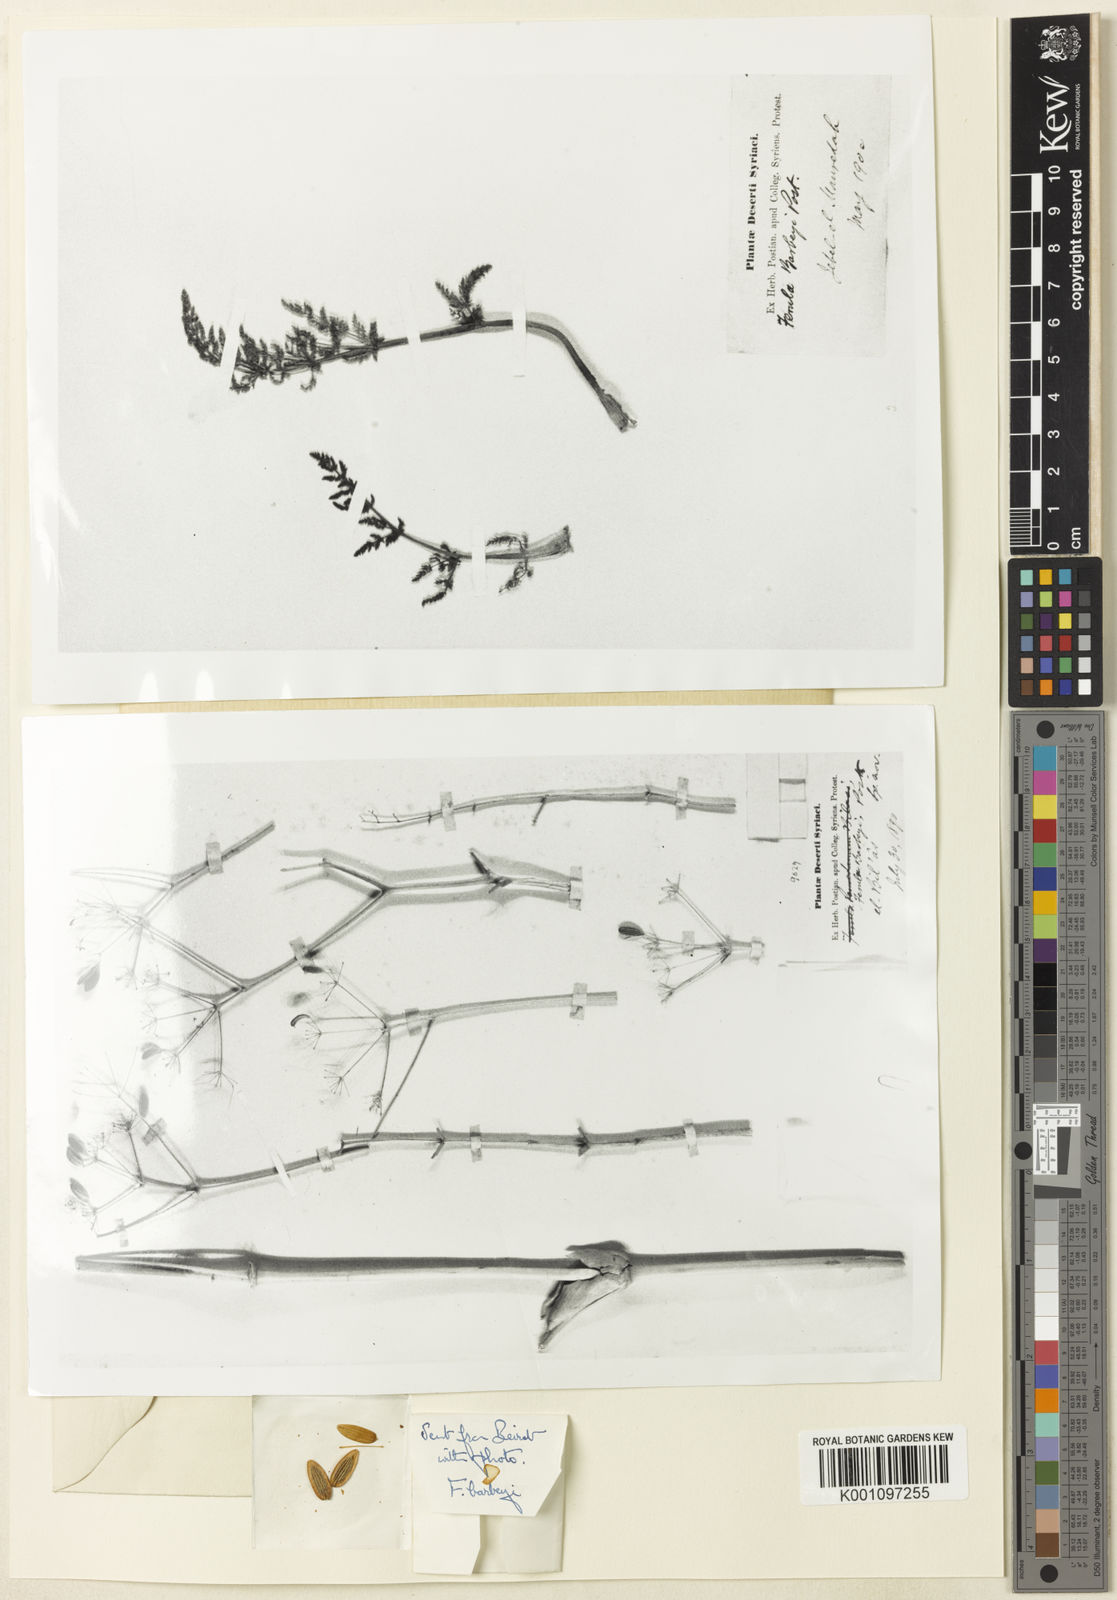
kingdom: Plantae
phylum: Tracheophyta
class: Magnoliopsida
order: Apiales
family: Apiaceae
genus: Ferula
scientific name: Ferula barbeyi
